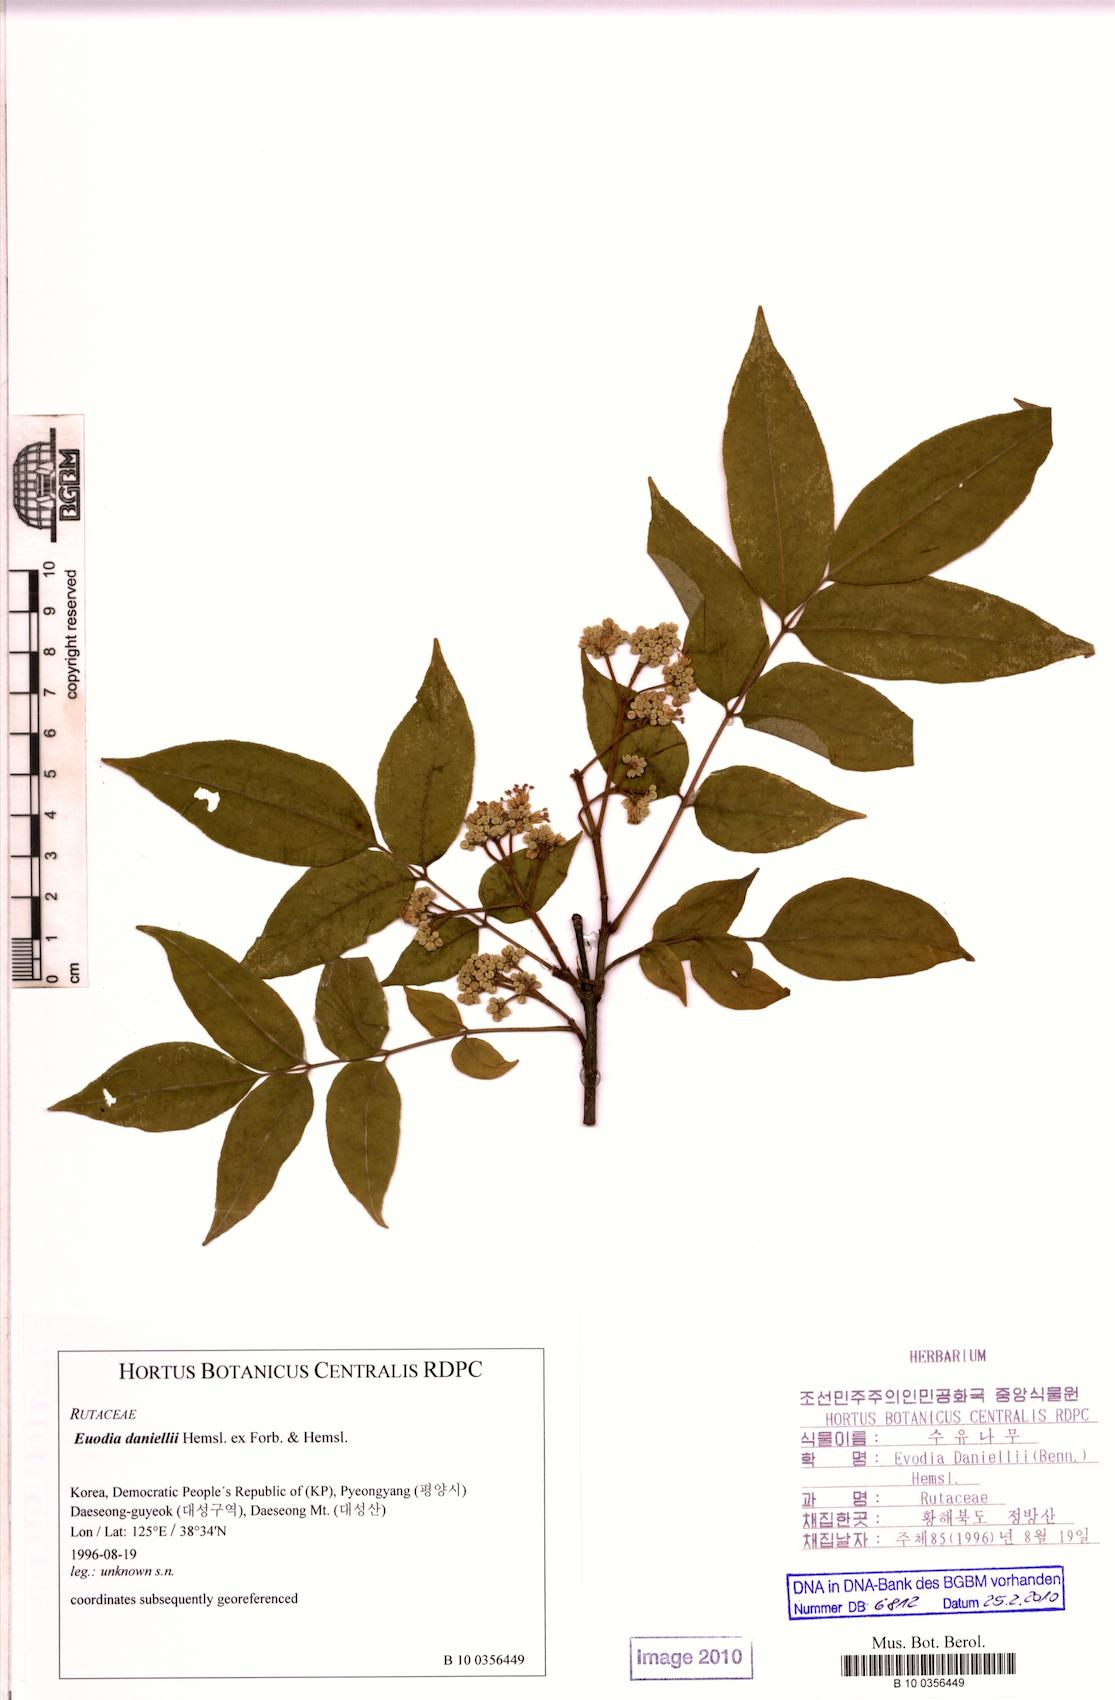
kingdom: Plantae
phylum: Tracheophyta
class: Magnoliopsida
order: Sapindales
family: Rutaceae
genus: Tetradium
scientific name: Tetradium daniellii
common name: Bee-bee tree
